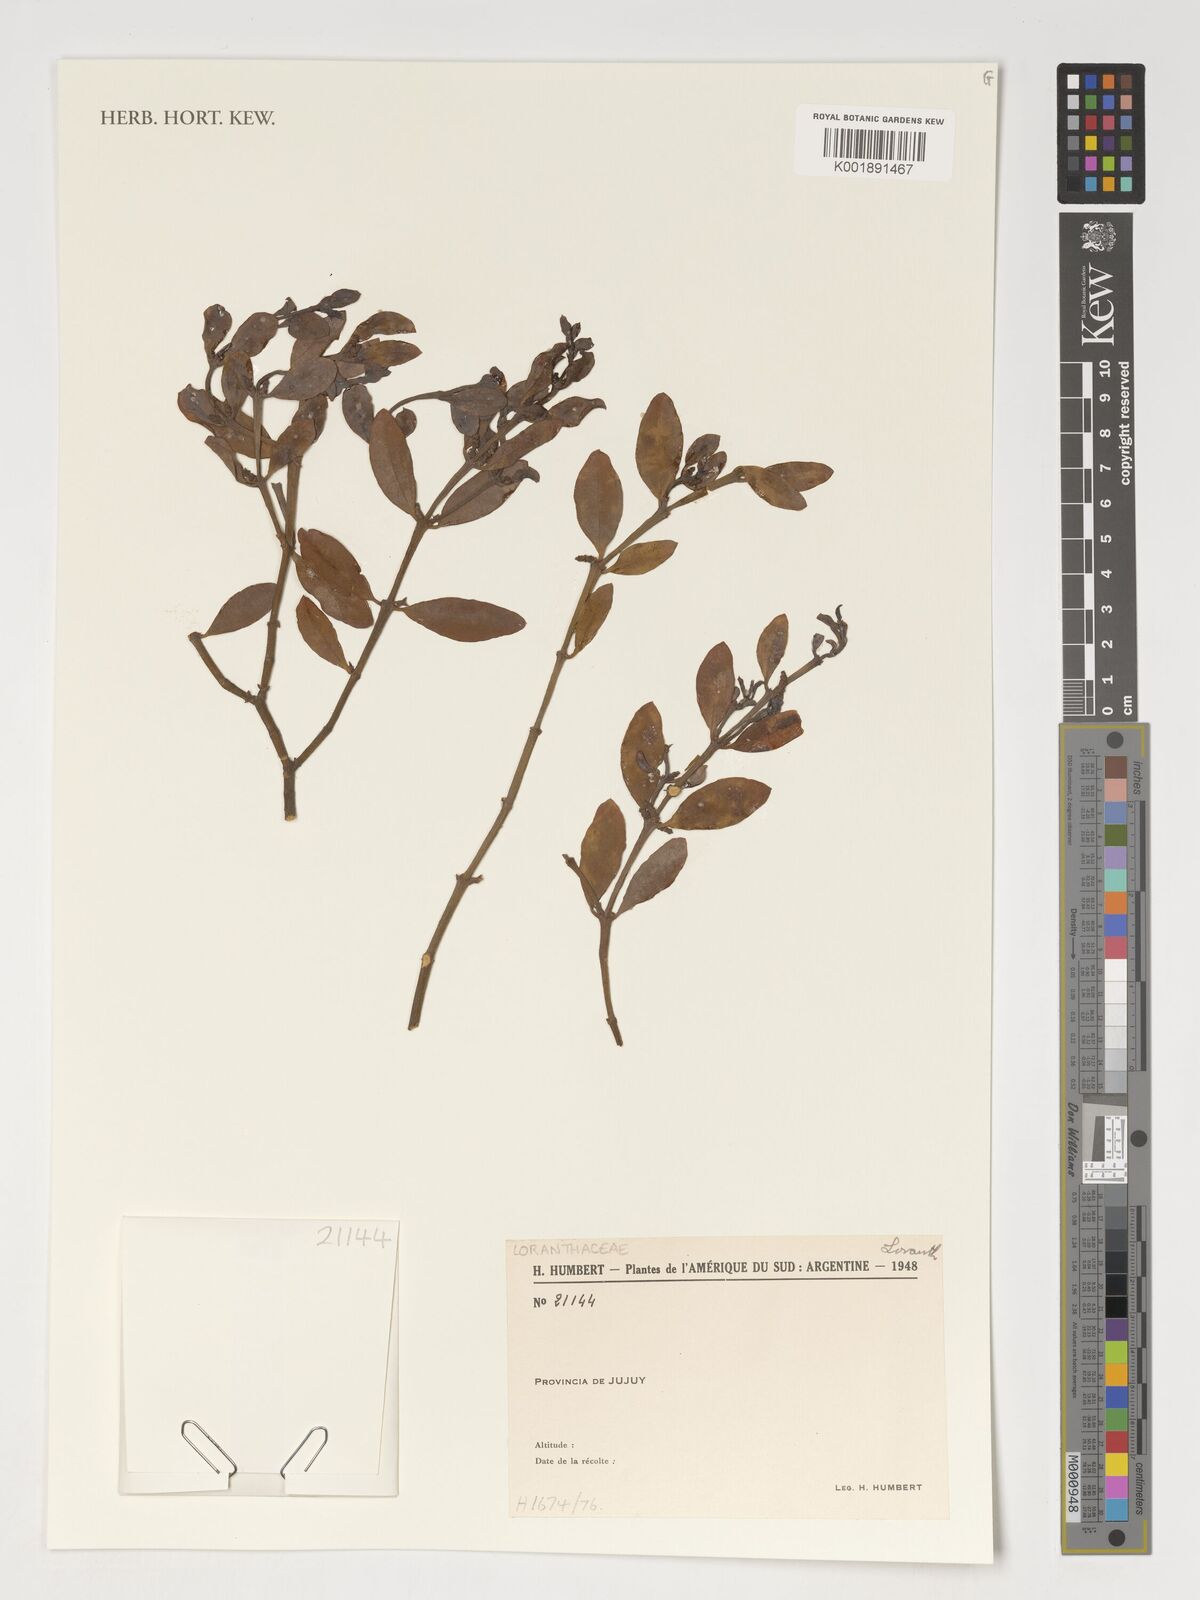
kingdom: Plantae
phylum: Tracheophyta
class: Magnoliopsida
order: Santalales
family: Loranthaceae
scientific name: Loranthaceae
